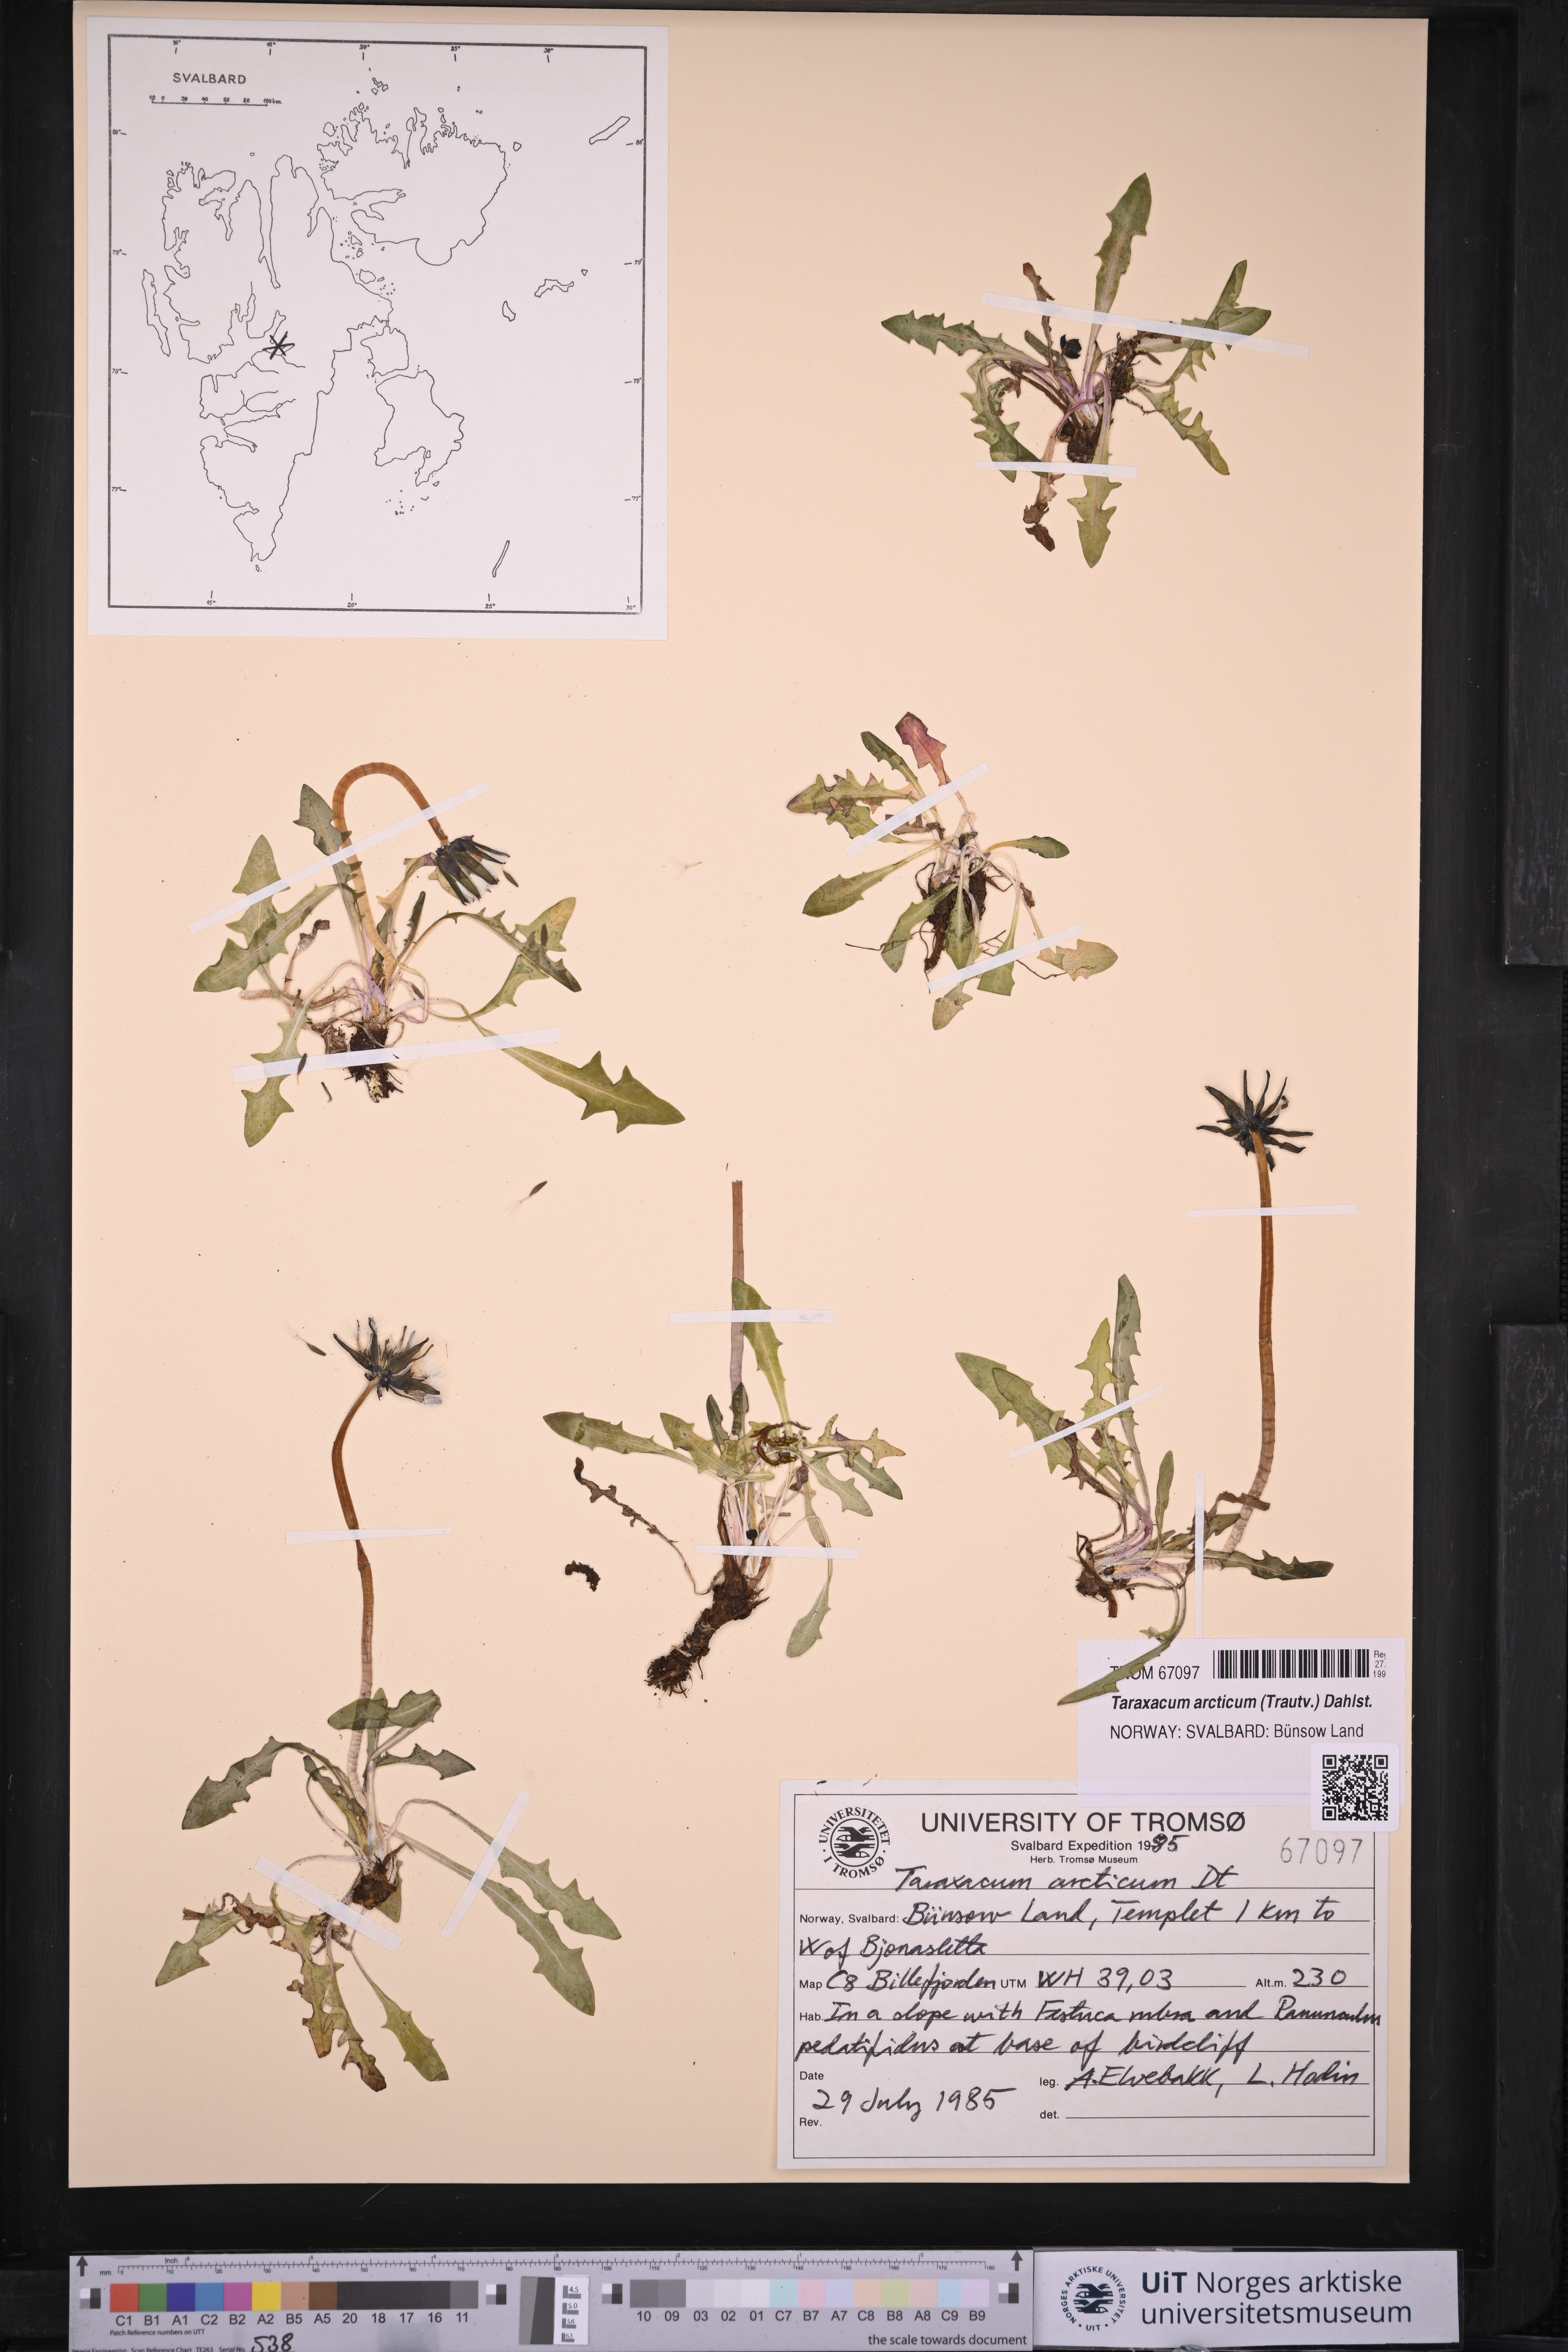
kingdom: Plantae
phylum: Tracheophyta
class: Magnoliopsida
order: Asterales
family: Asteraceae
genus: Taraxacum
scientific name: Taraxacum arcticum
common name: Arctic dandelion
